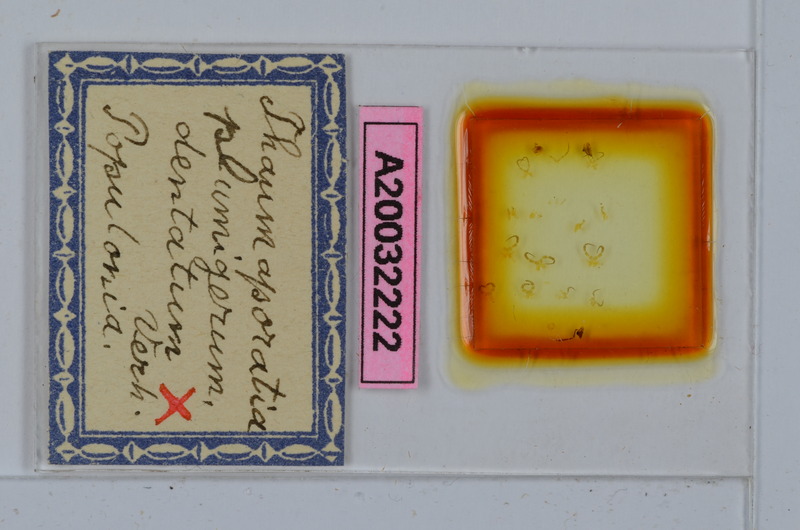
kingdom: Animalia
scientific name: Animalia
